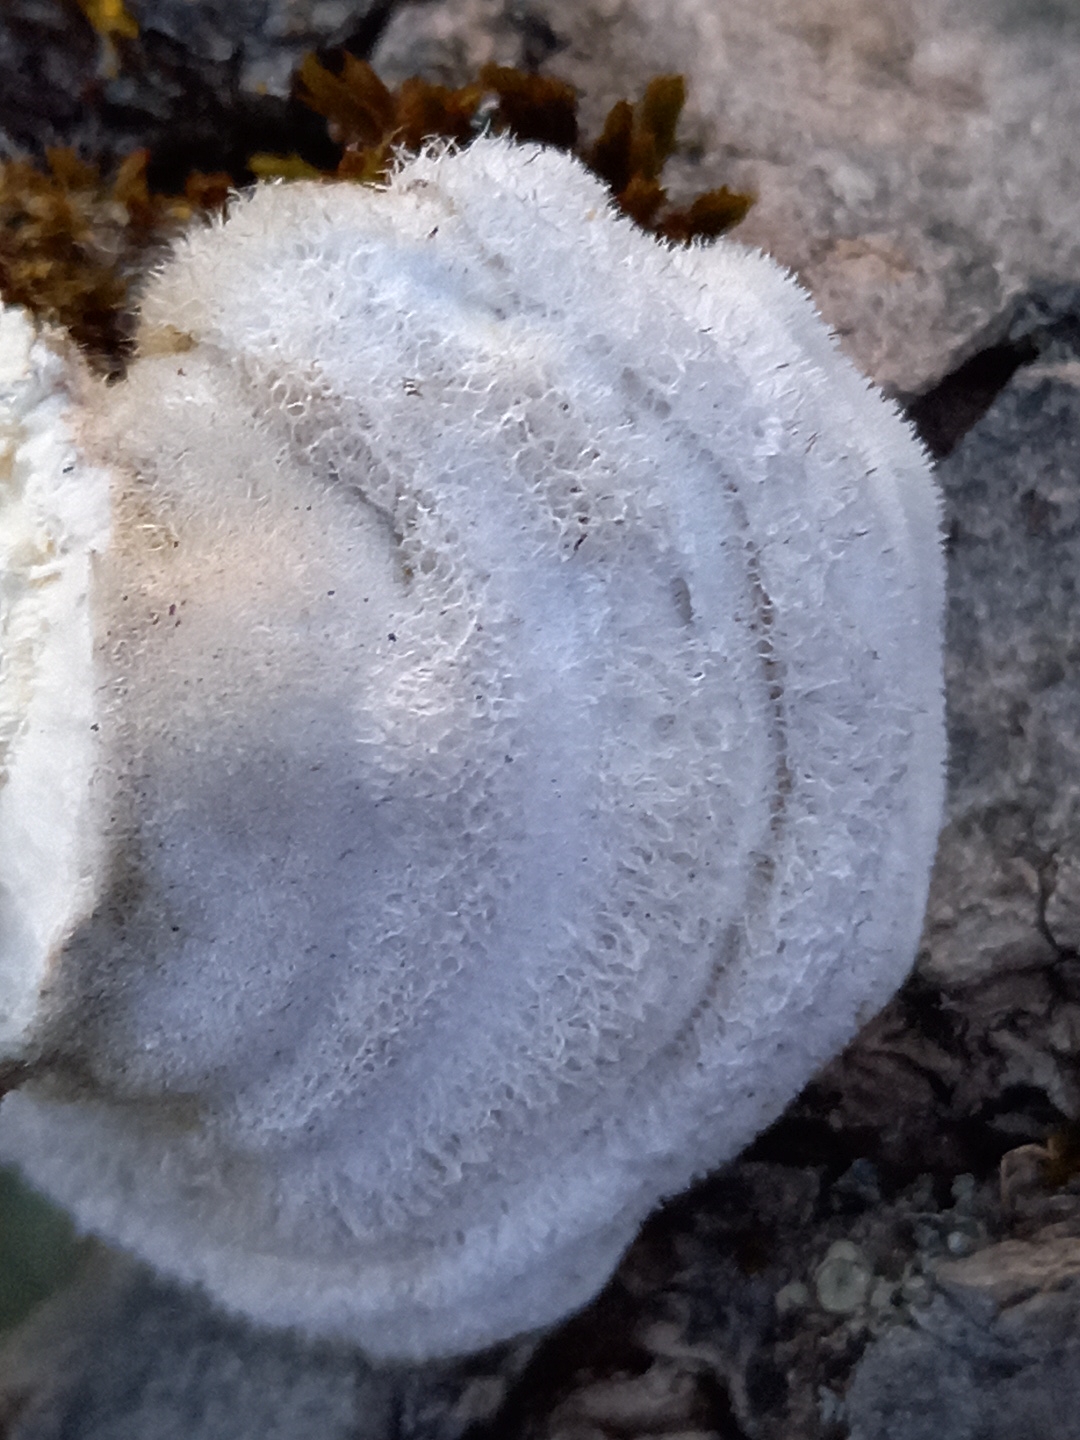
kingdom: Fungi
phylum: Basidiomycota
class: Agaricomycetes
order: Polyporales
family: Polyporaceae
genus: Trametes
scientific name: Trametes hirsuta
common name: håret læderporesvamp
